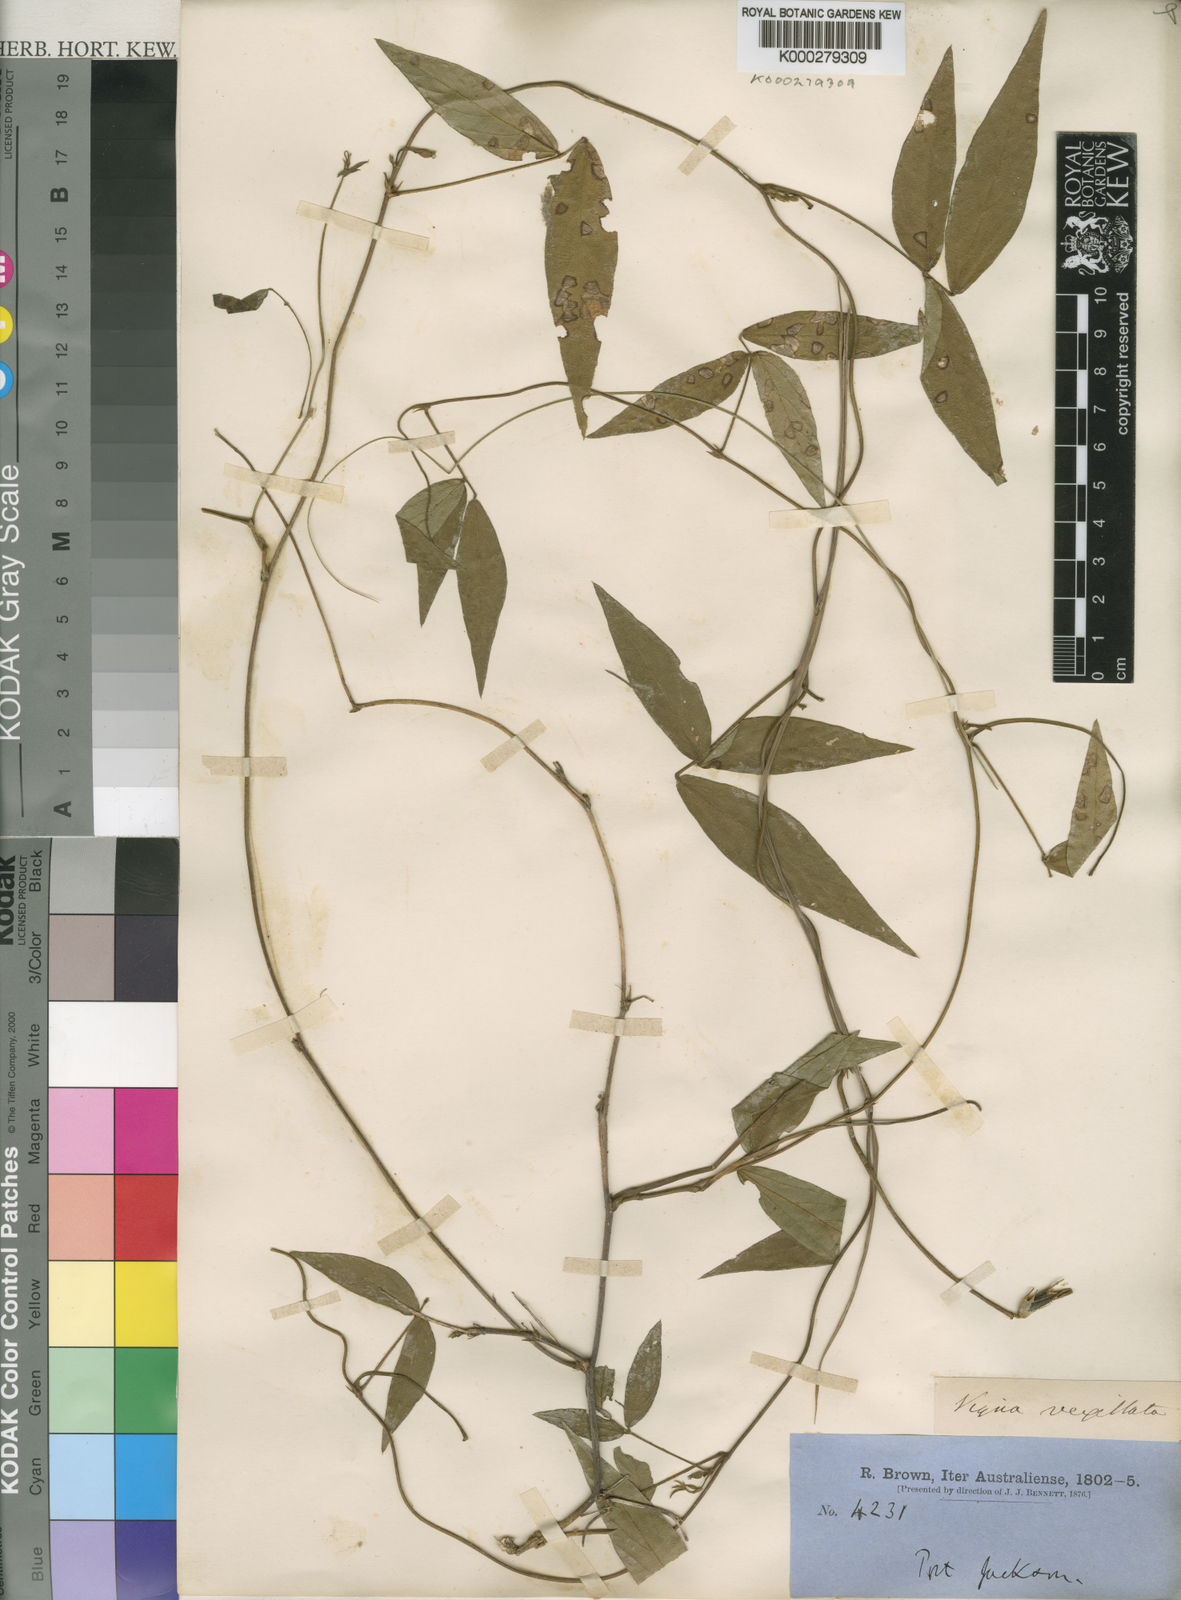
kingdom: Plantae
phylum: Tracheophyta
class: Magnoliopsida
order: Fabales
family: Fabaceae
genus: Vigna
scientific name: Vigna vexillata
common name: Zombi pea
